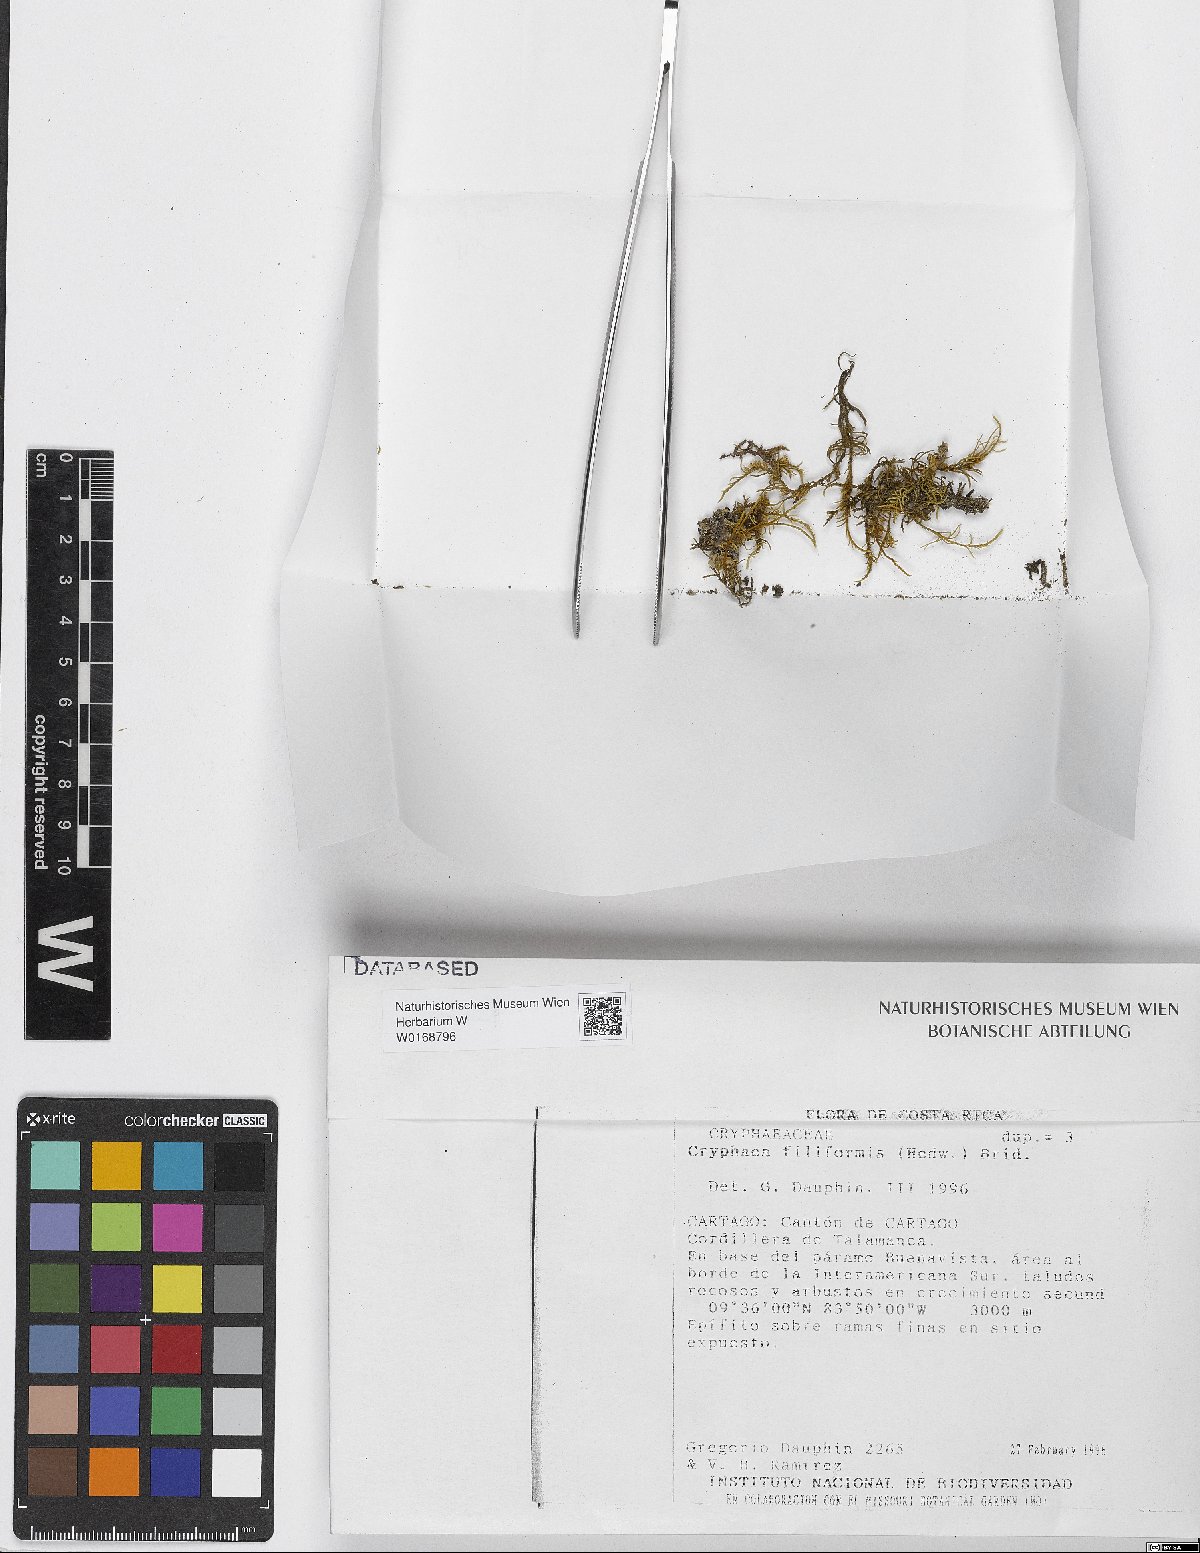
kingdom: Plantae
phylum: Bryophyta
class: Bryopsida
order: Hypnales
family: Cryphaeaceae
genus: Cryphaea
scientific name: Cryphaea filiformis
